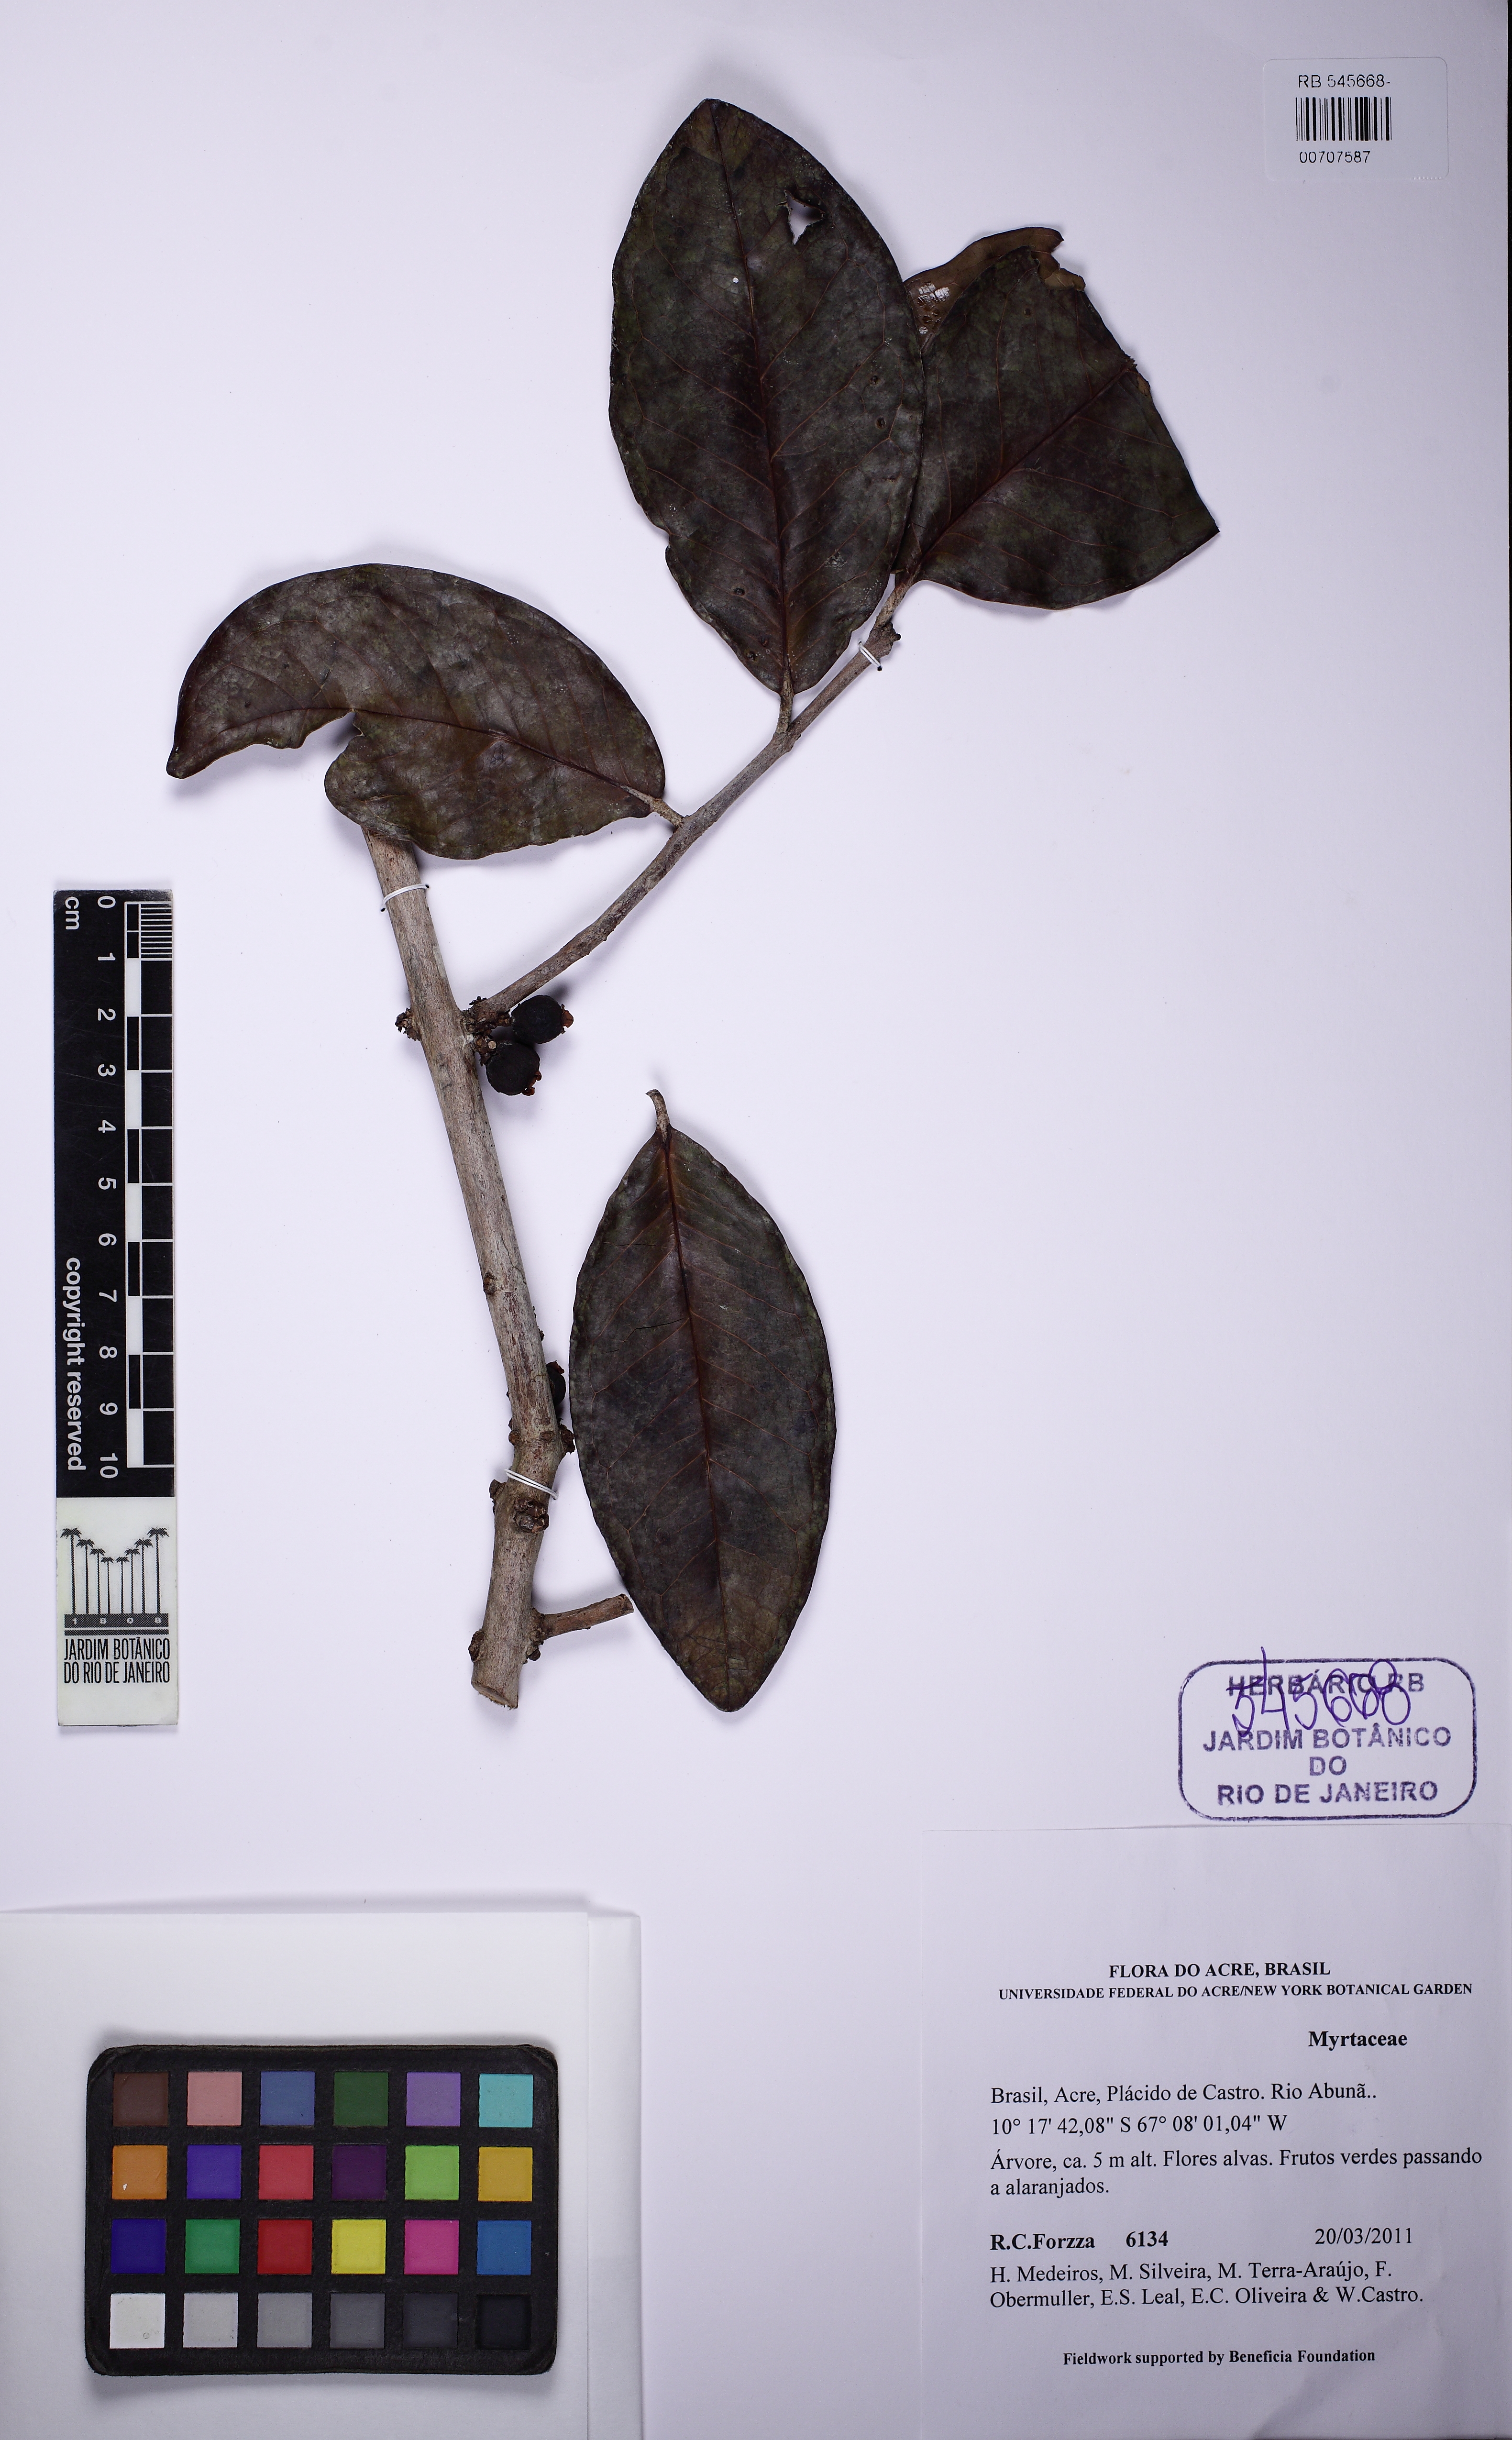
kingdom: Plantae
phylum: Tracheophyta
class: Magnoliopsida
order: Myrtales
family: Myrtaceae
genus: Eugenia
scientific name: Eugenia
